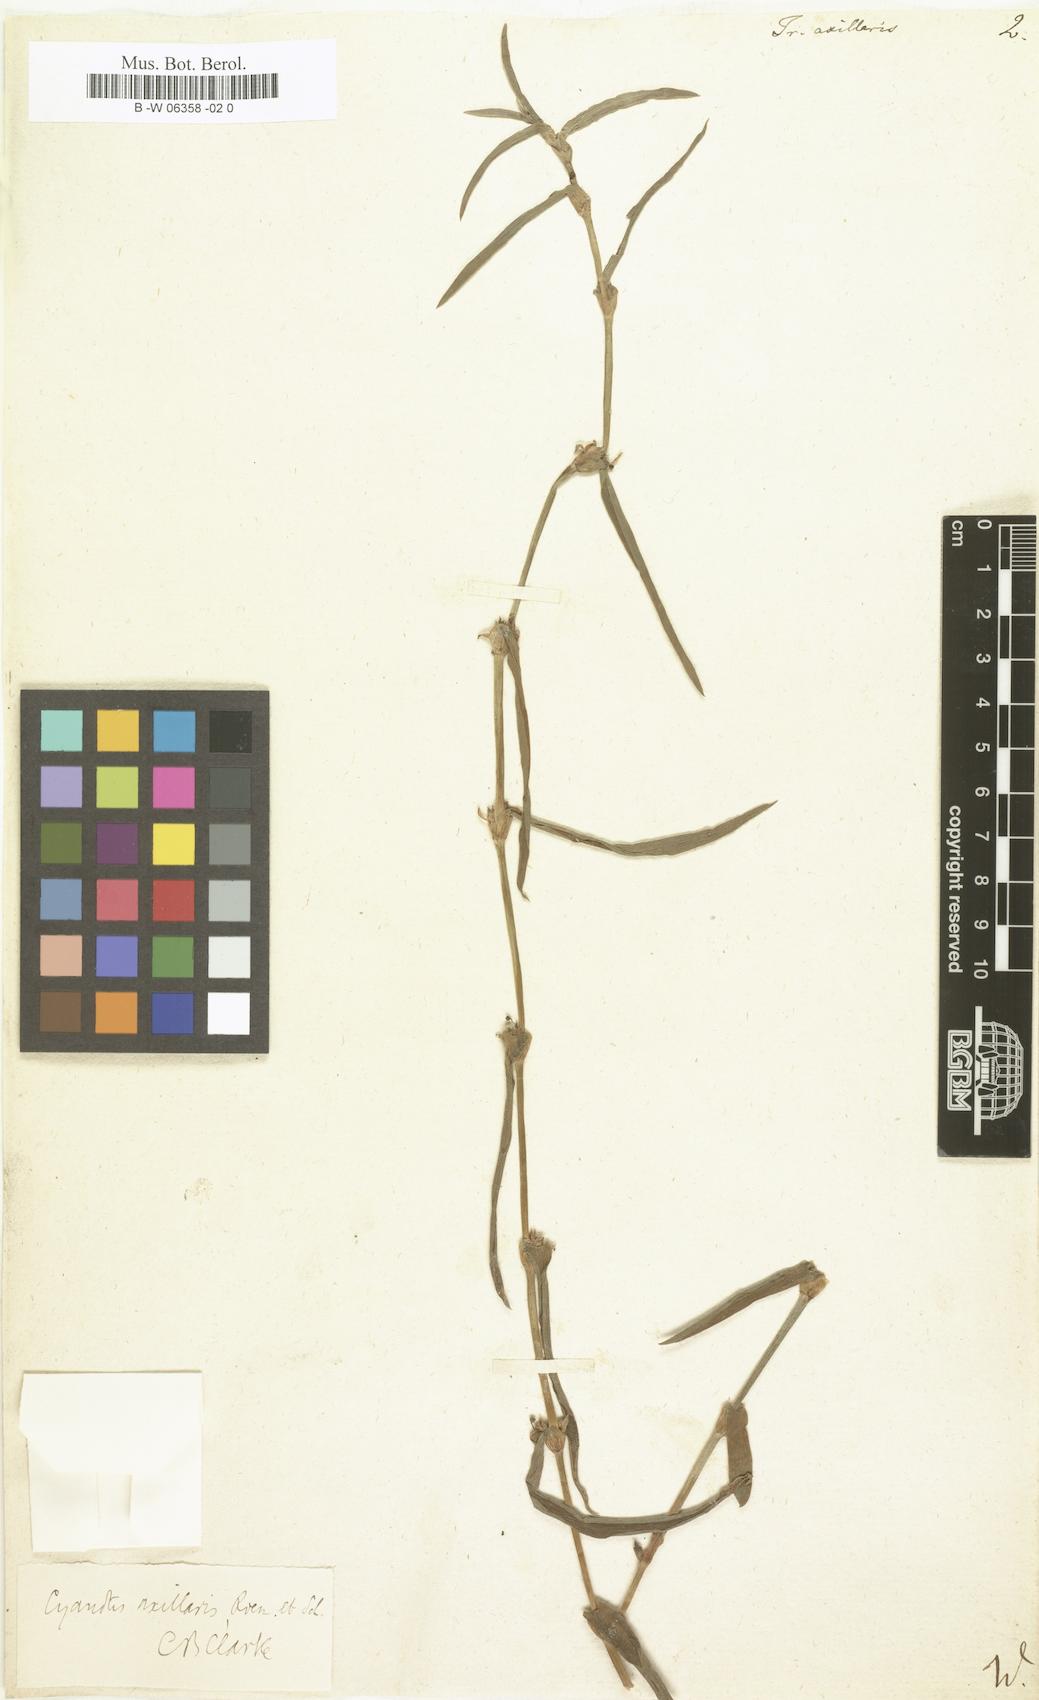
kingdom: Plantae
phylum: Tracheophyta
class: Liliopsida
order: Commelinales
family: Commelinaceae
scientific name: Commelinaceae
